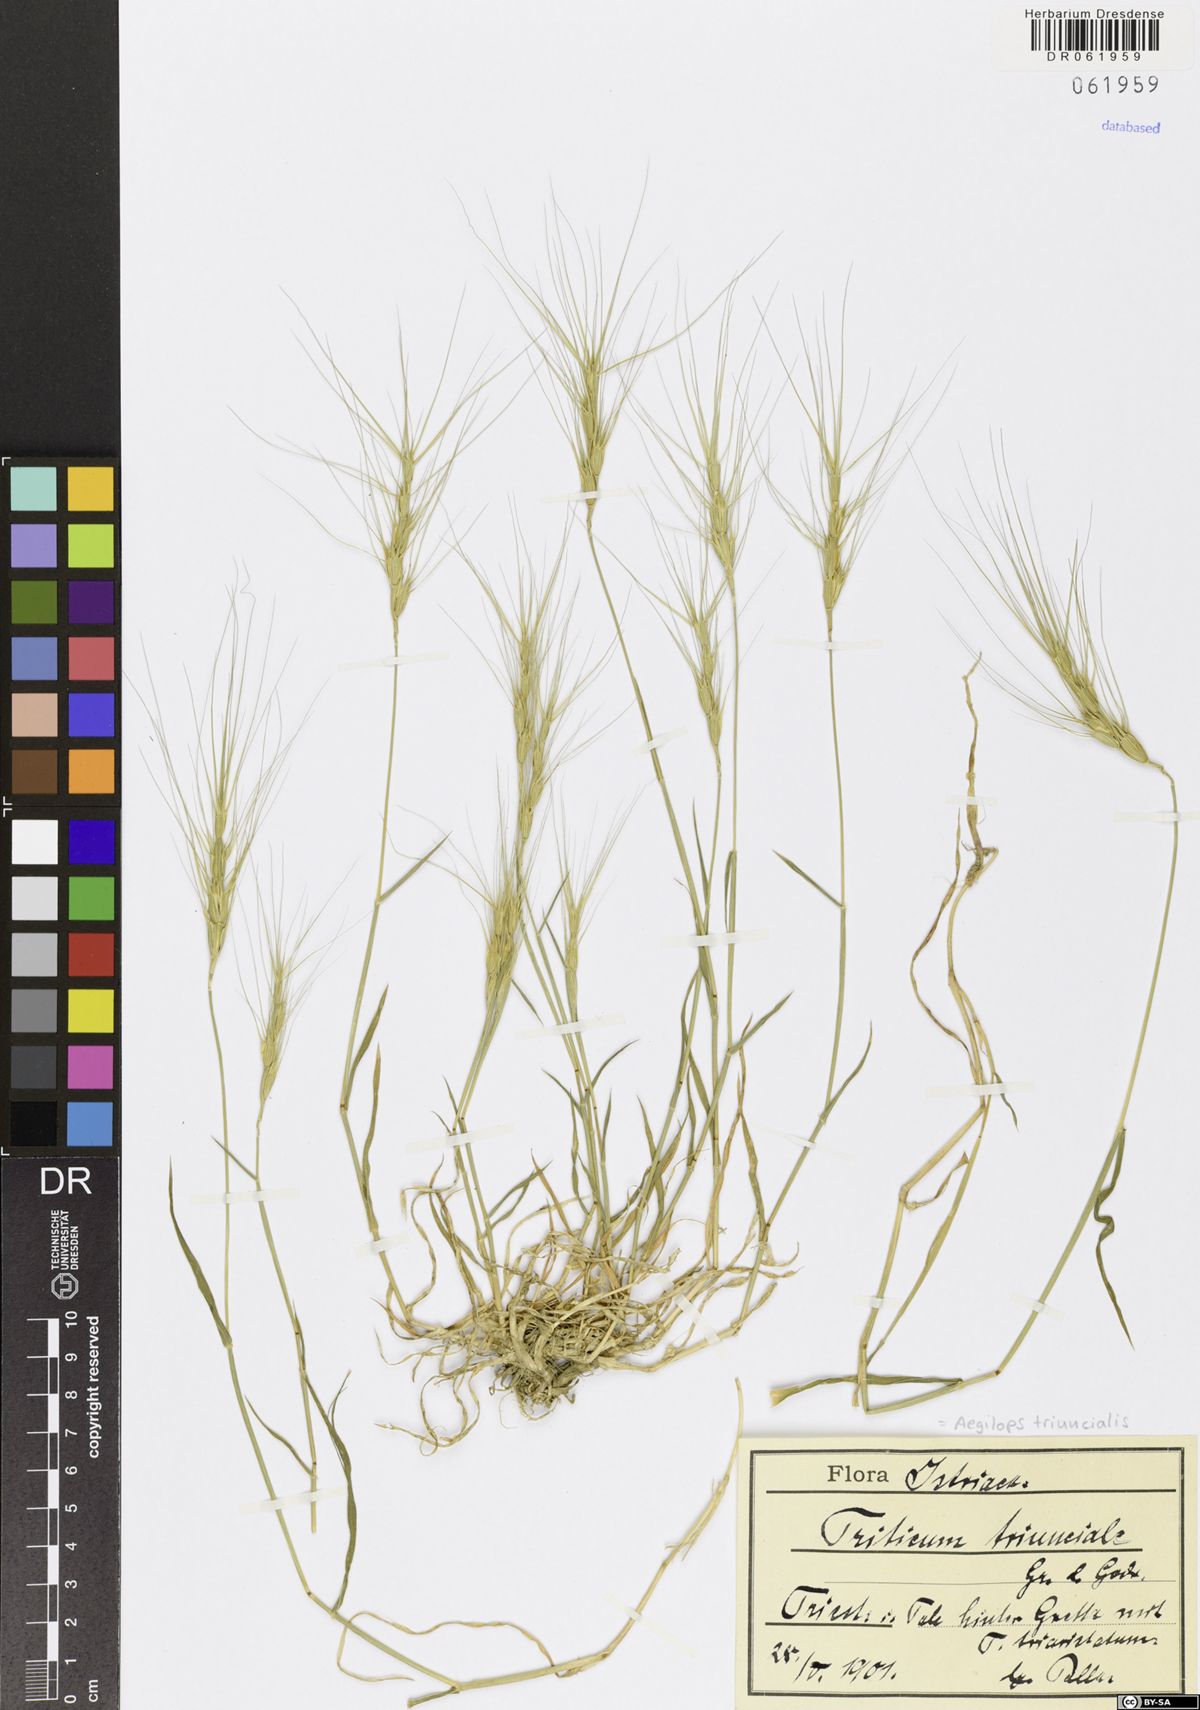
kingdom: Plantae
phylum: Tracheophyta
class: Liliopsida
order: Poales
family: Poaceae
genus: Aegilops
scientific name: Aegilops triuncialis
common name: Barb goat grass
